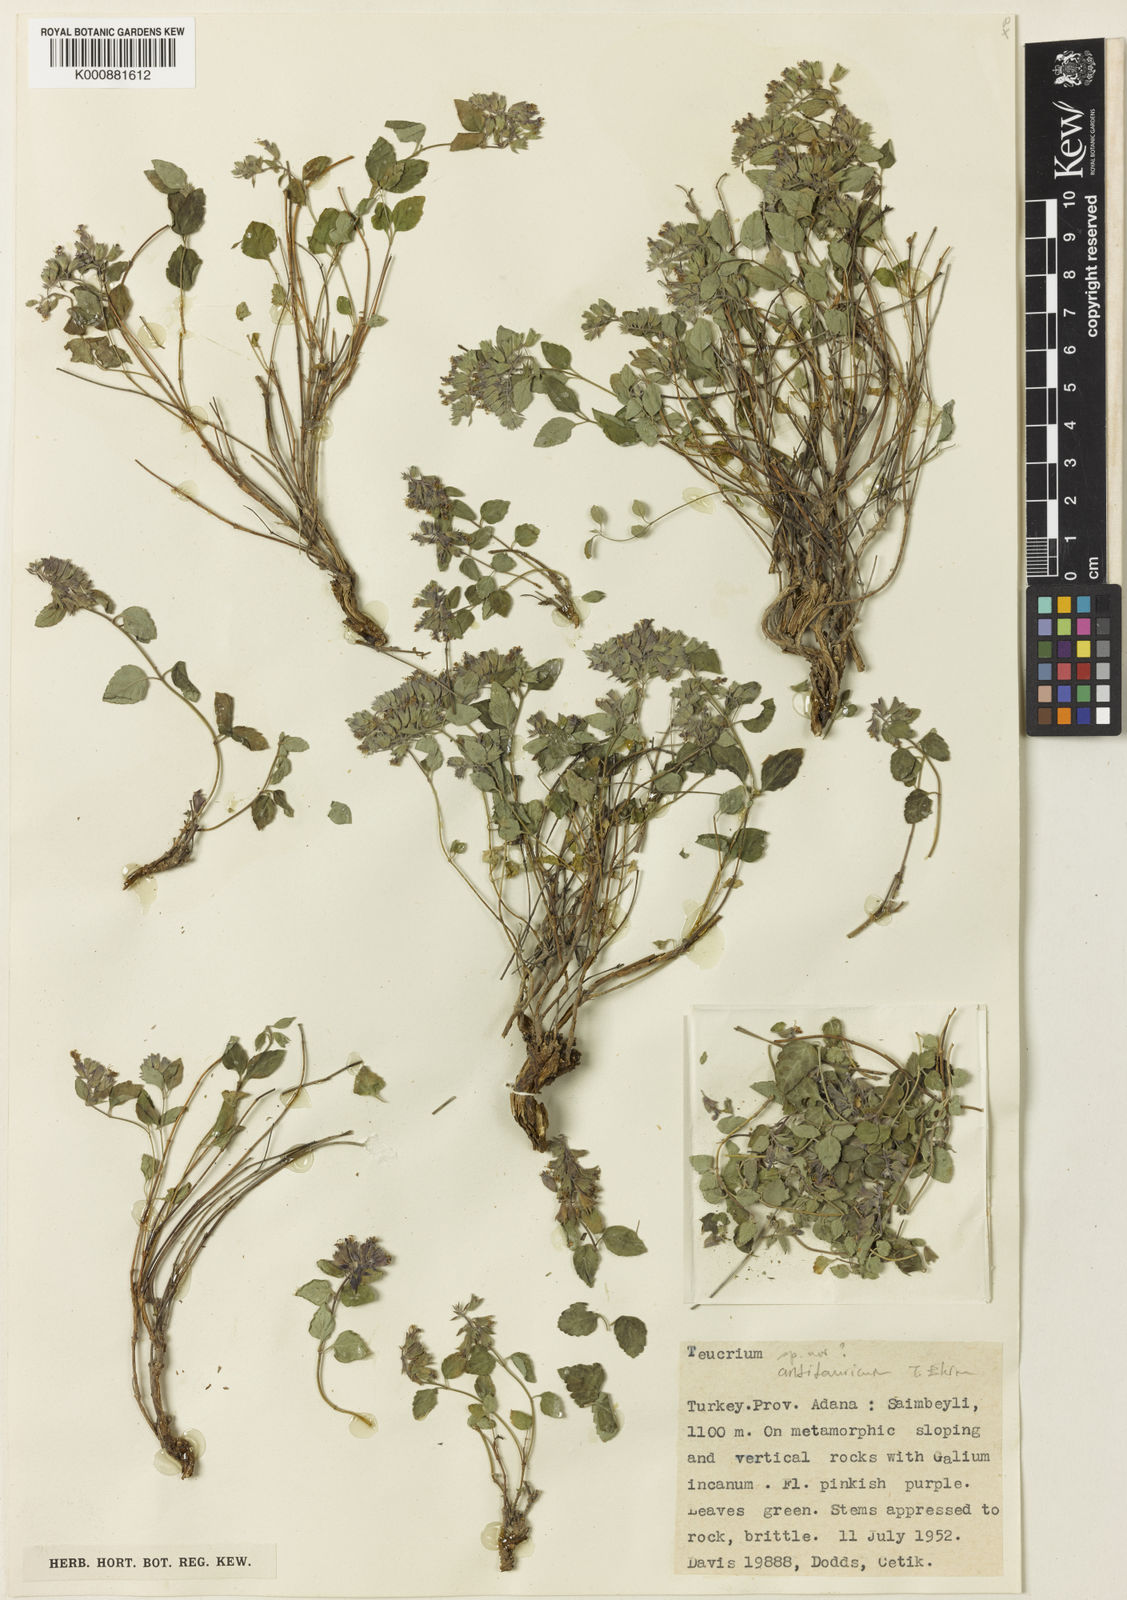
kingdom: Plantae
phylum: Tracheophyta
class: Magnoliopsida
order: Lamiales
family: Lamiaceae
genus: Teucrium
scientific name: Teucrium antitauricum
